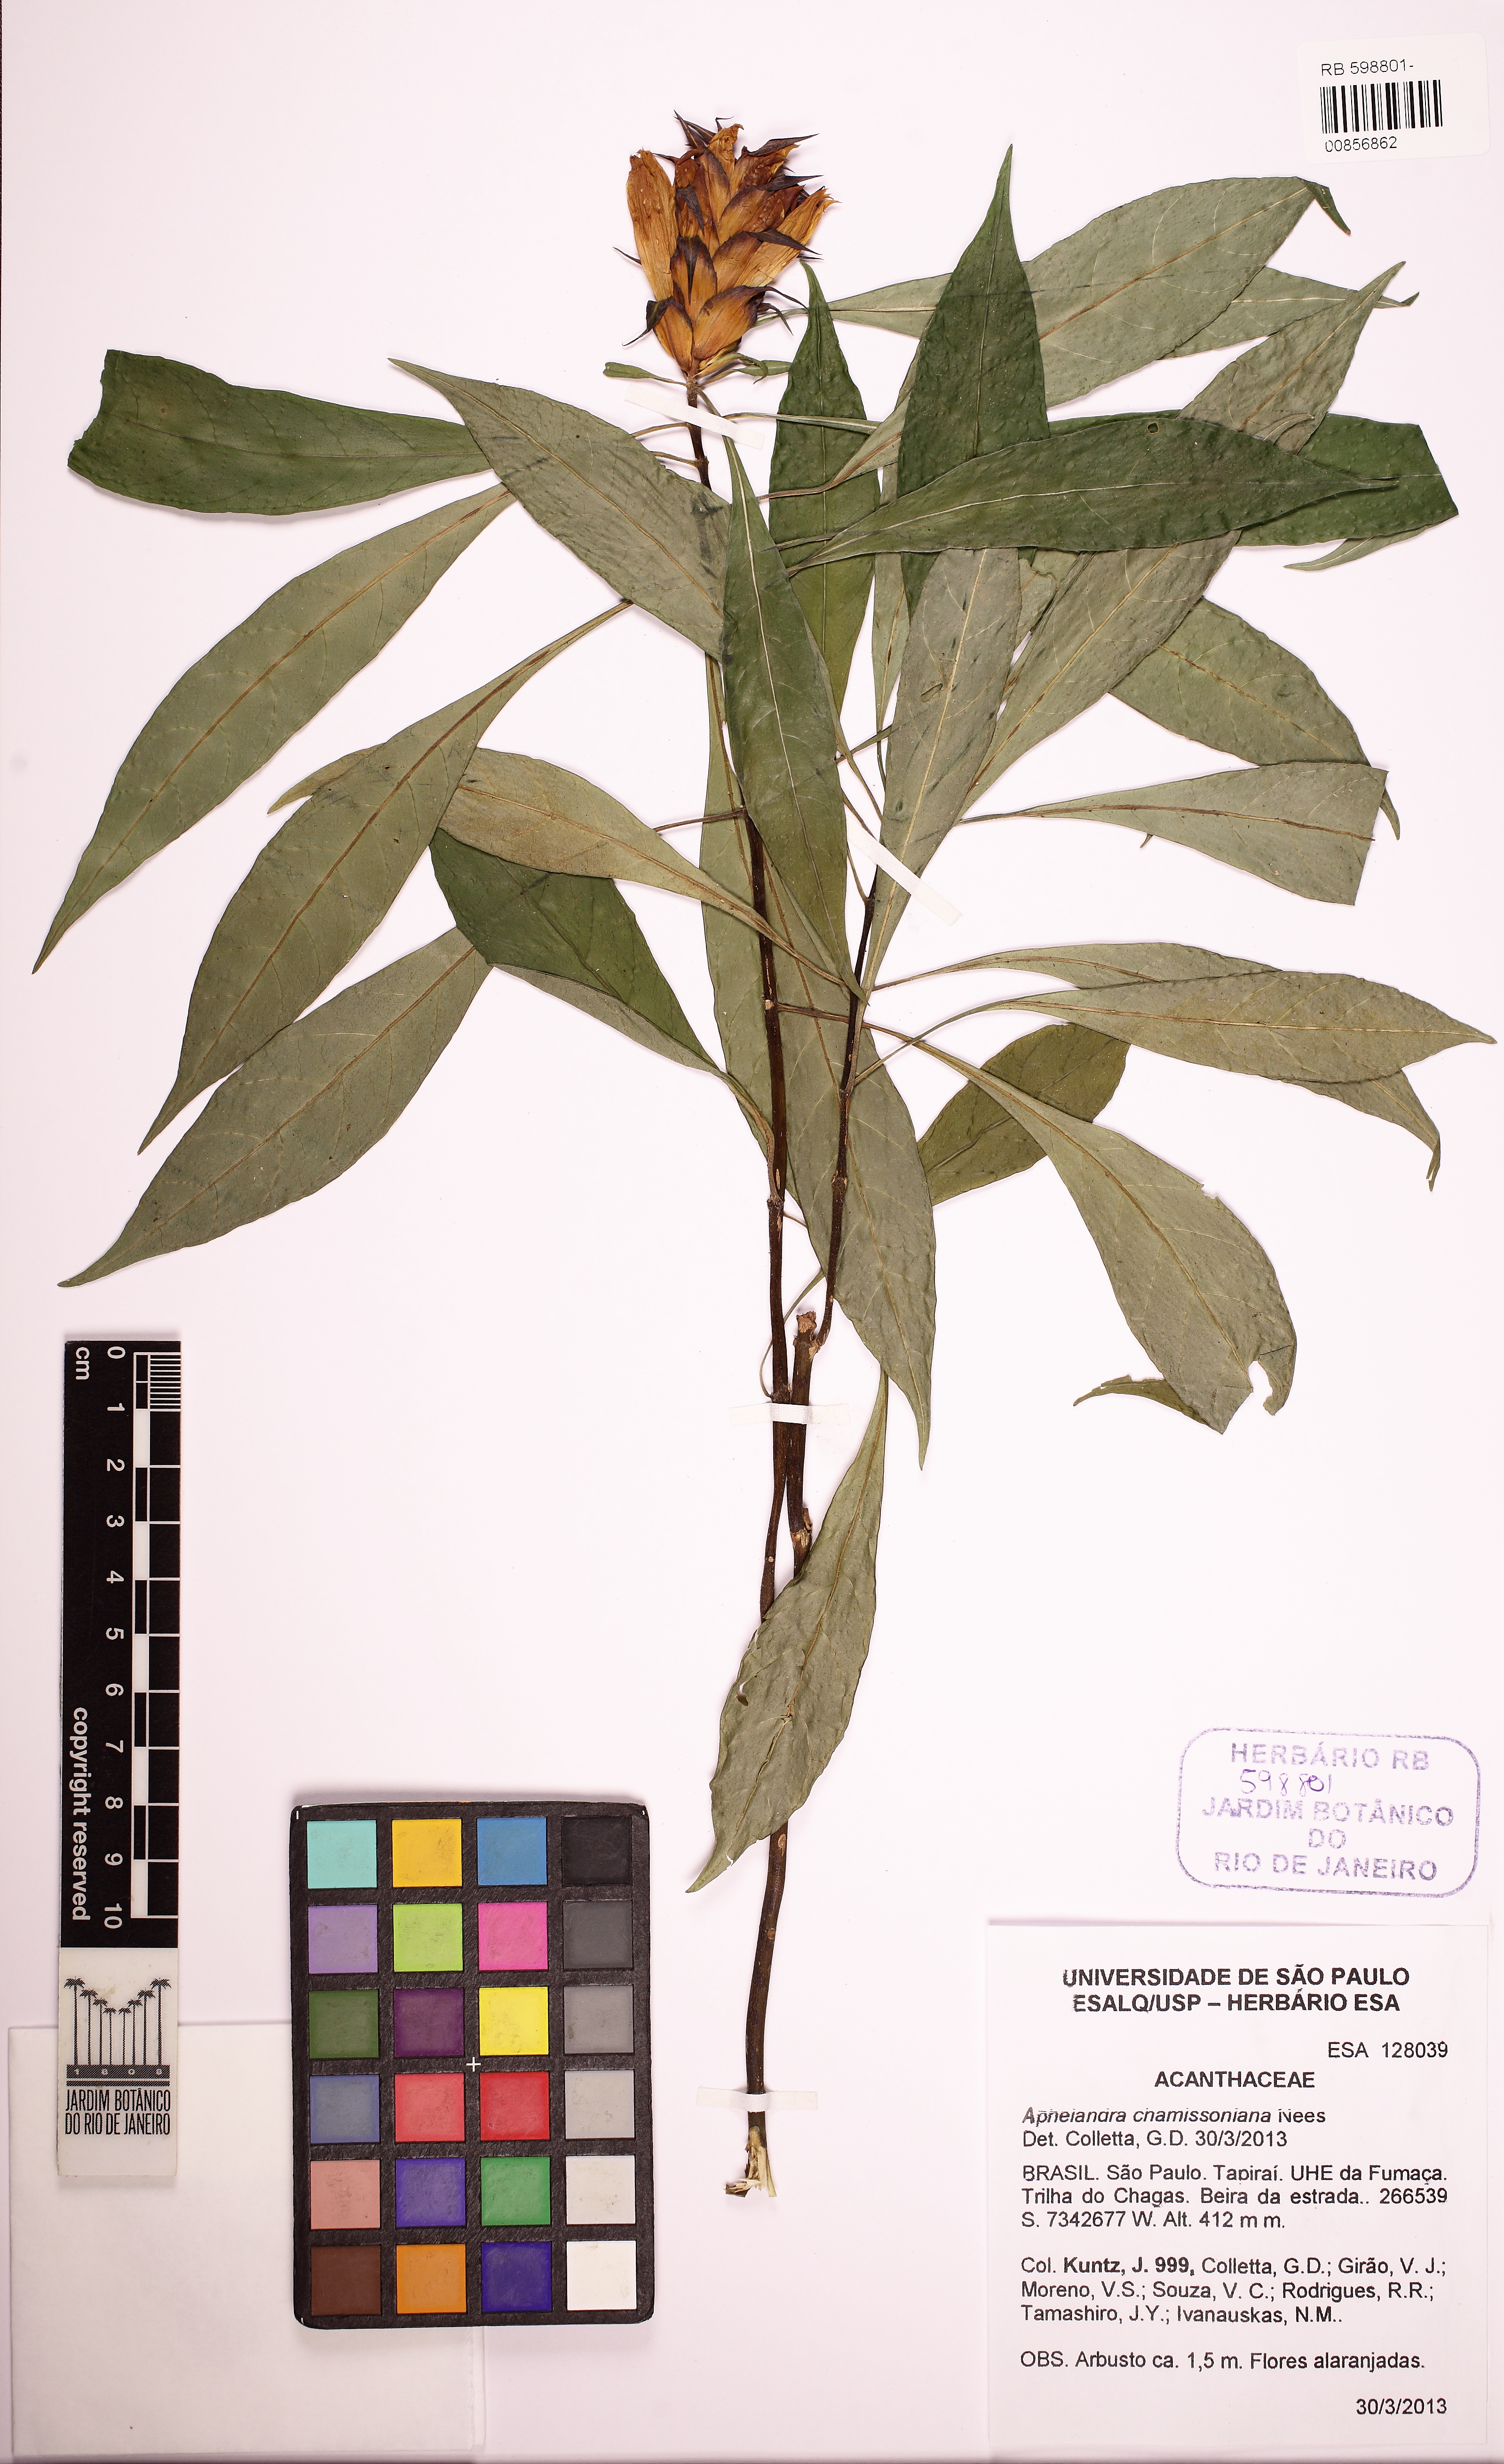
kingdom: Plantae
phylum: Tracheophyta
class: Magnoliopsida
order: Lamiales
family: Acanthaceae
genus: Aphelandra
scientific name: Aphelandra chamissoniana
